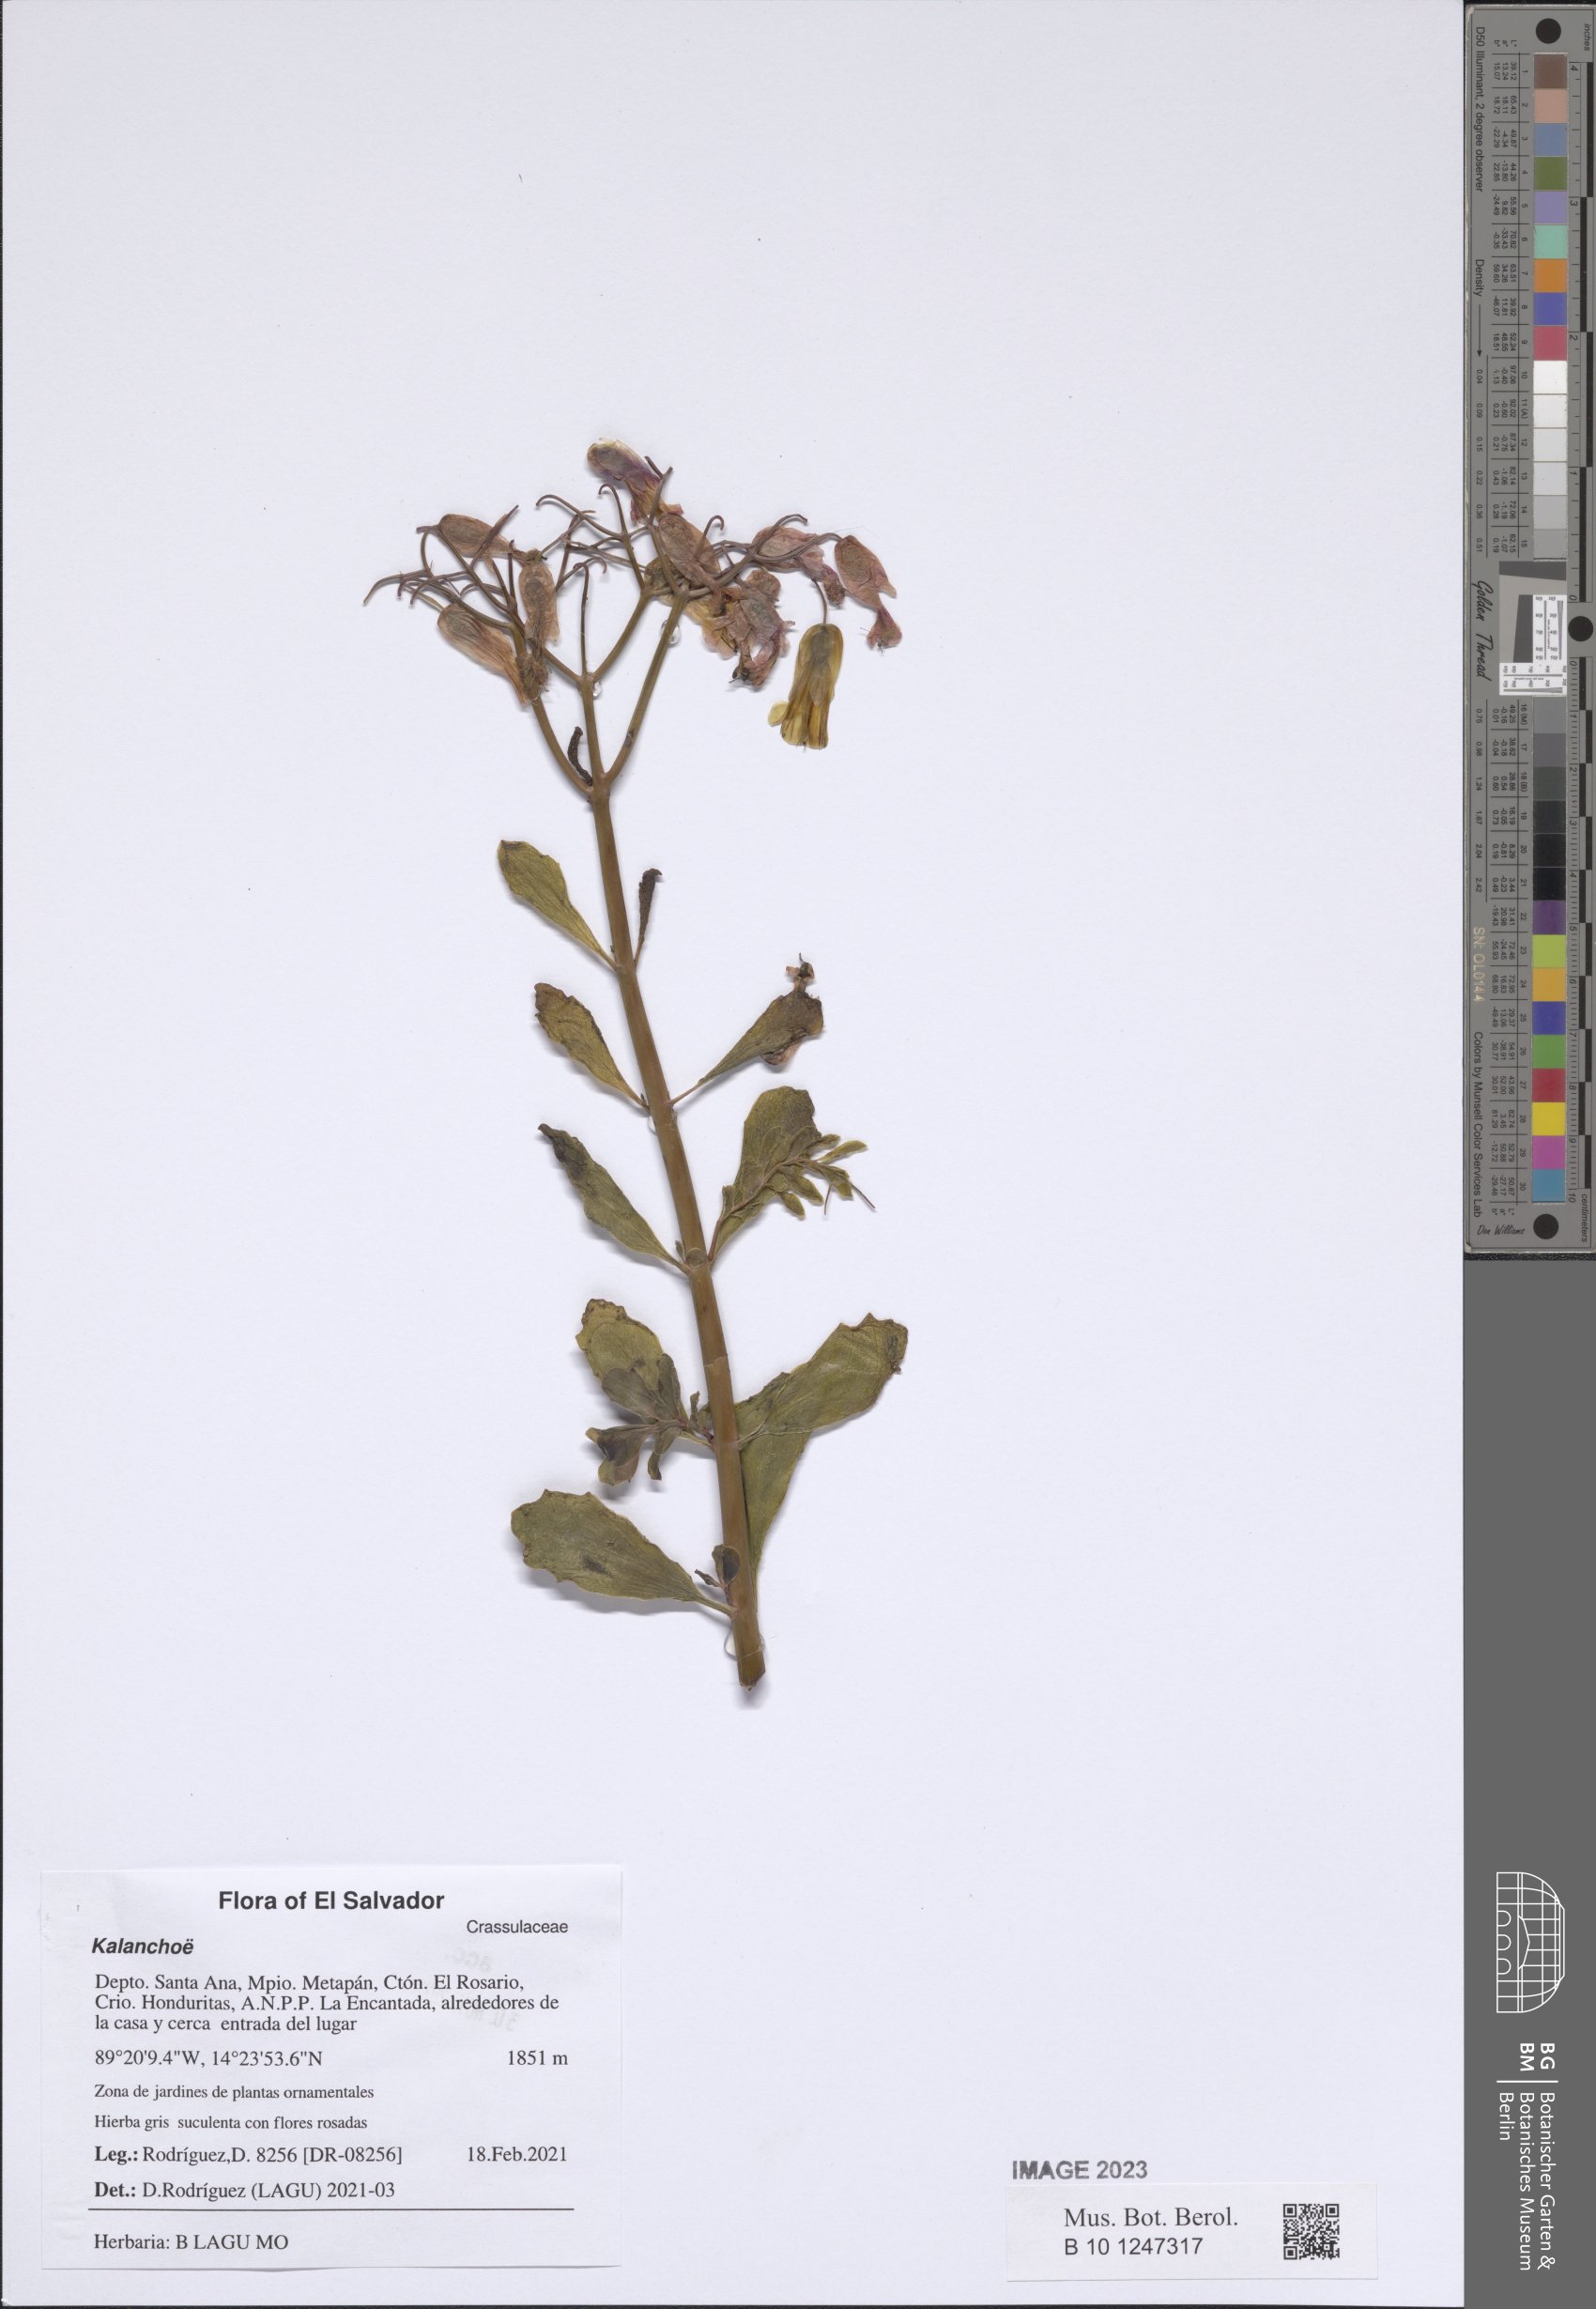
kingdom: Plantae
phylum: Tracheophyta
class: Magnoliopsida
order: Saxifragales
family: Crassulaceae
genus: Kalanchoe
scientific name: Kalanchoe
